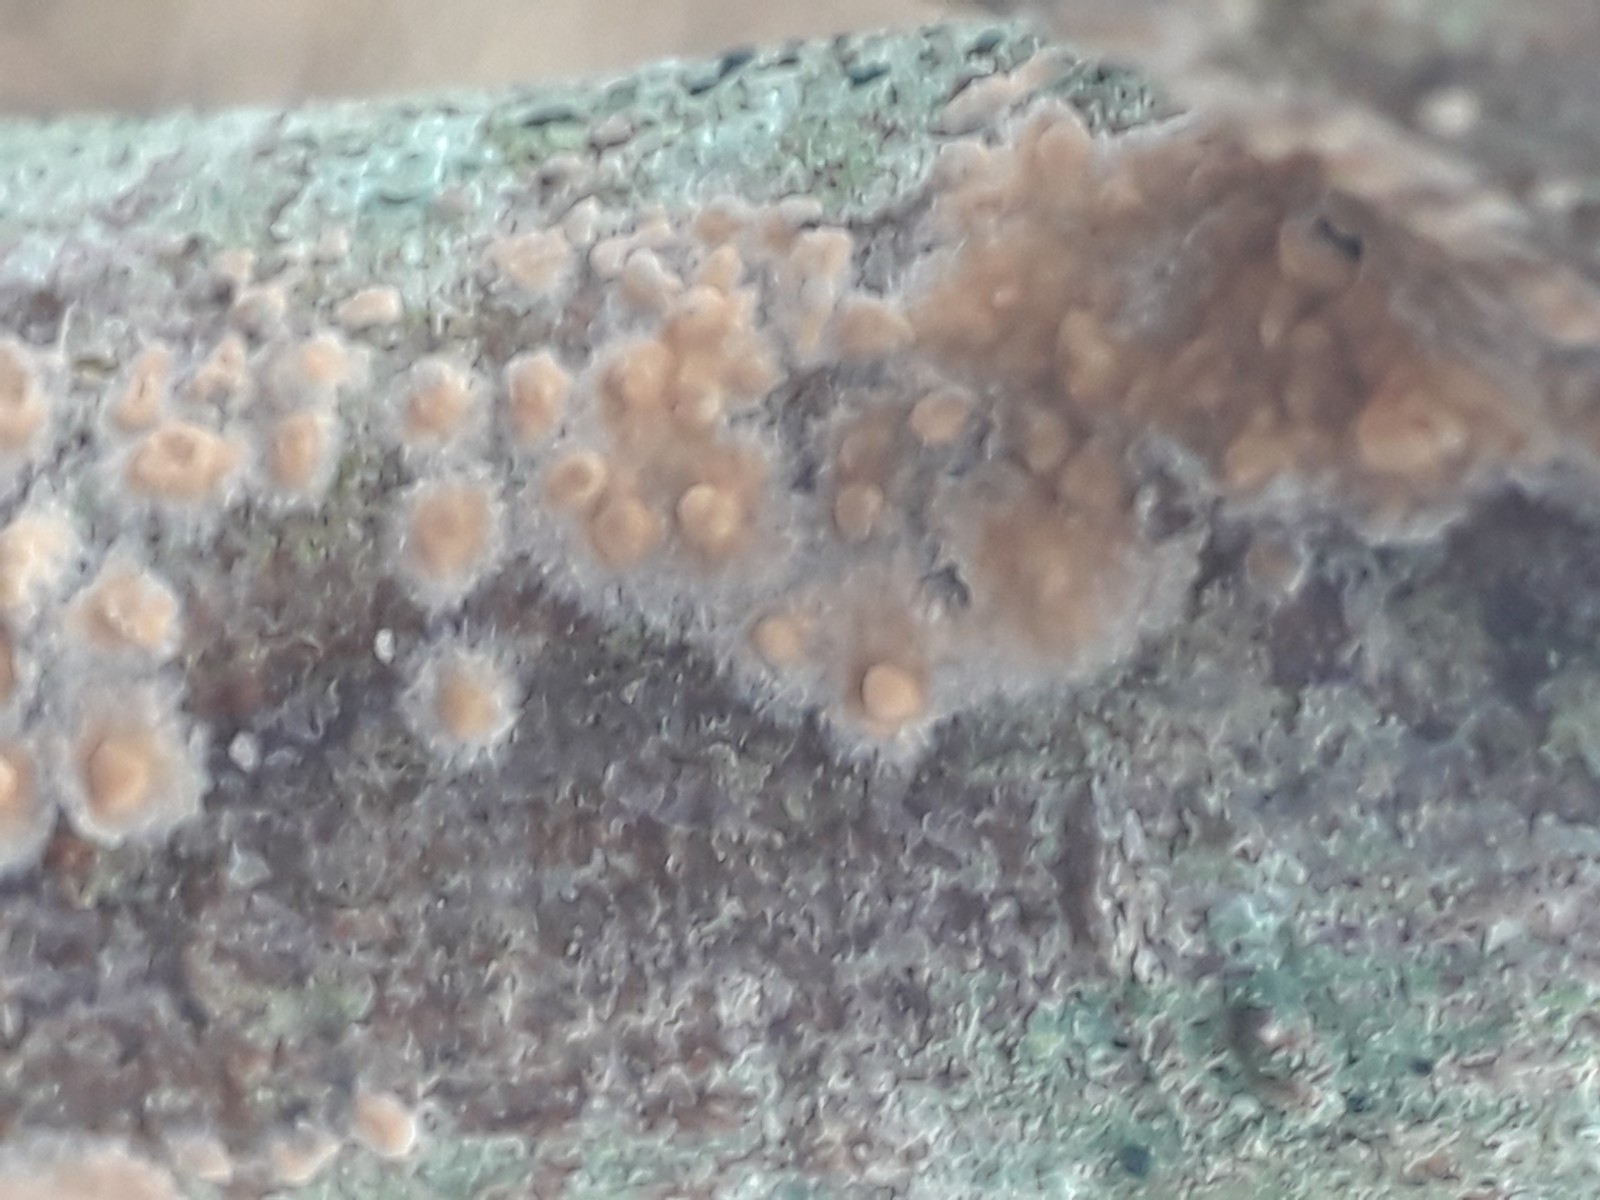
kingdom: Fungi
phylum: Basidiomycota
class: Agaricomycetes
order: Russulales
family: Peniophoraceae
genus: Peniophora
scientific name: Peniophora incarnata
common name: laksefarvet voksskind
